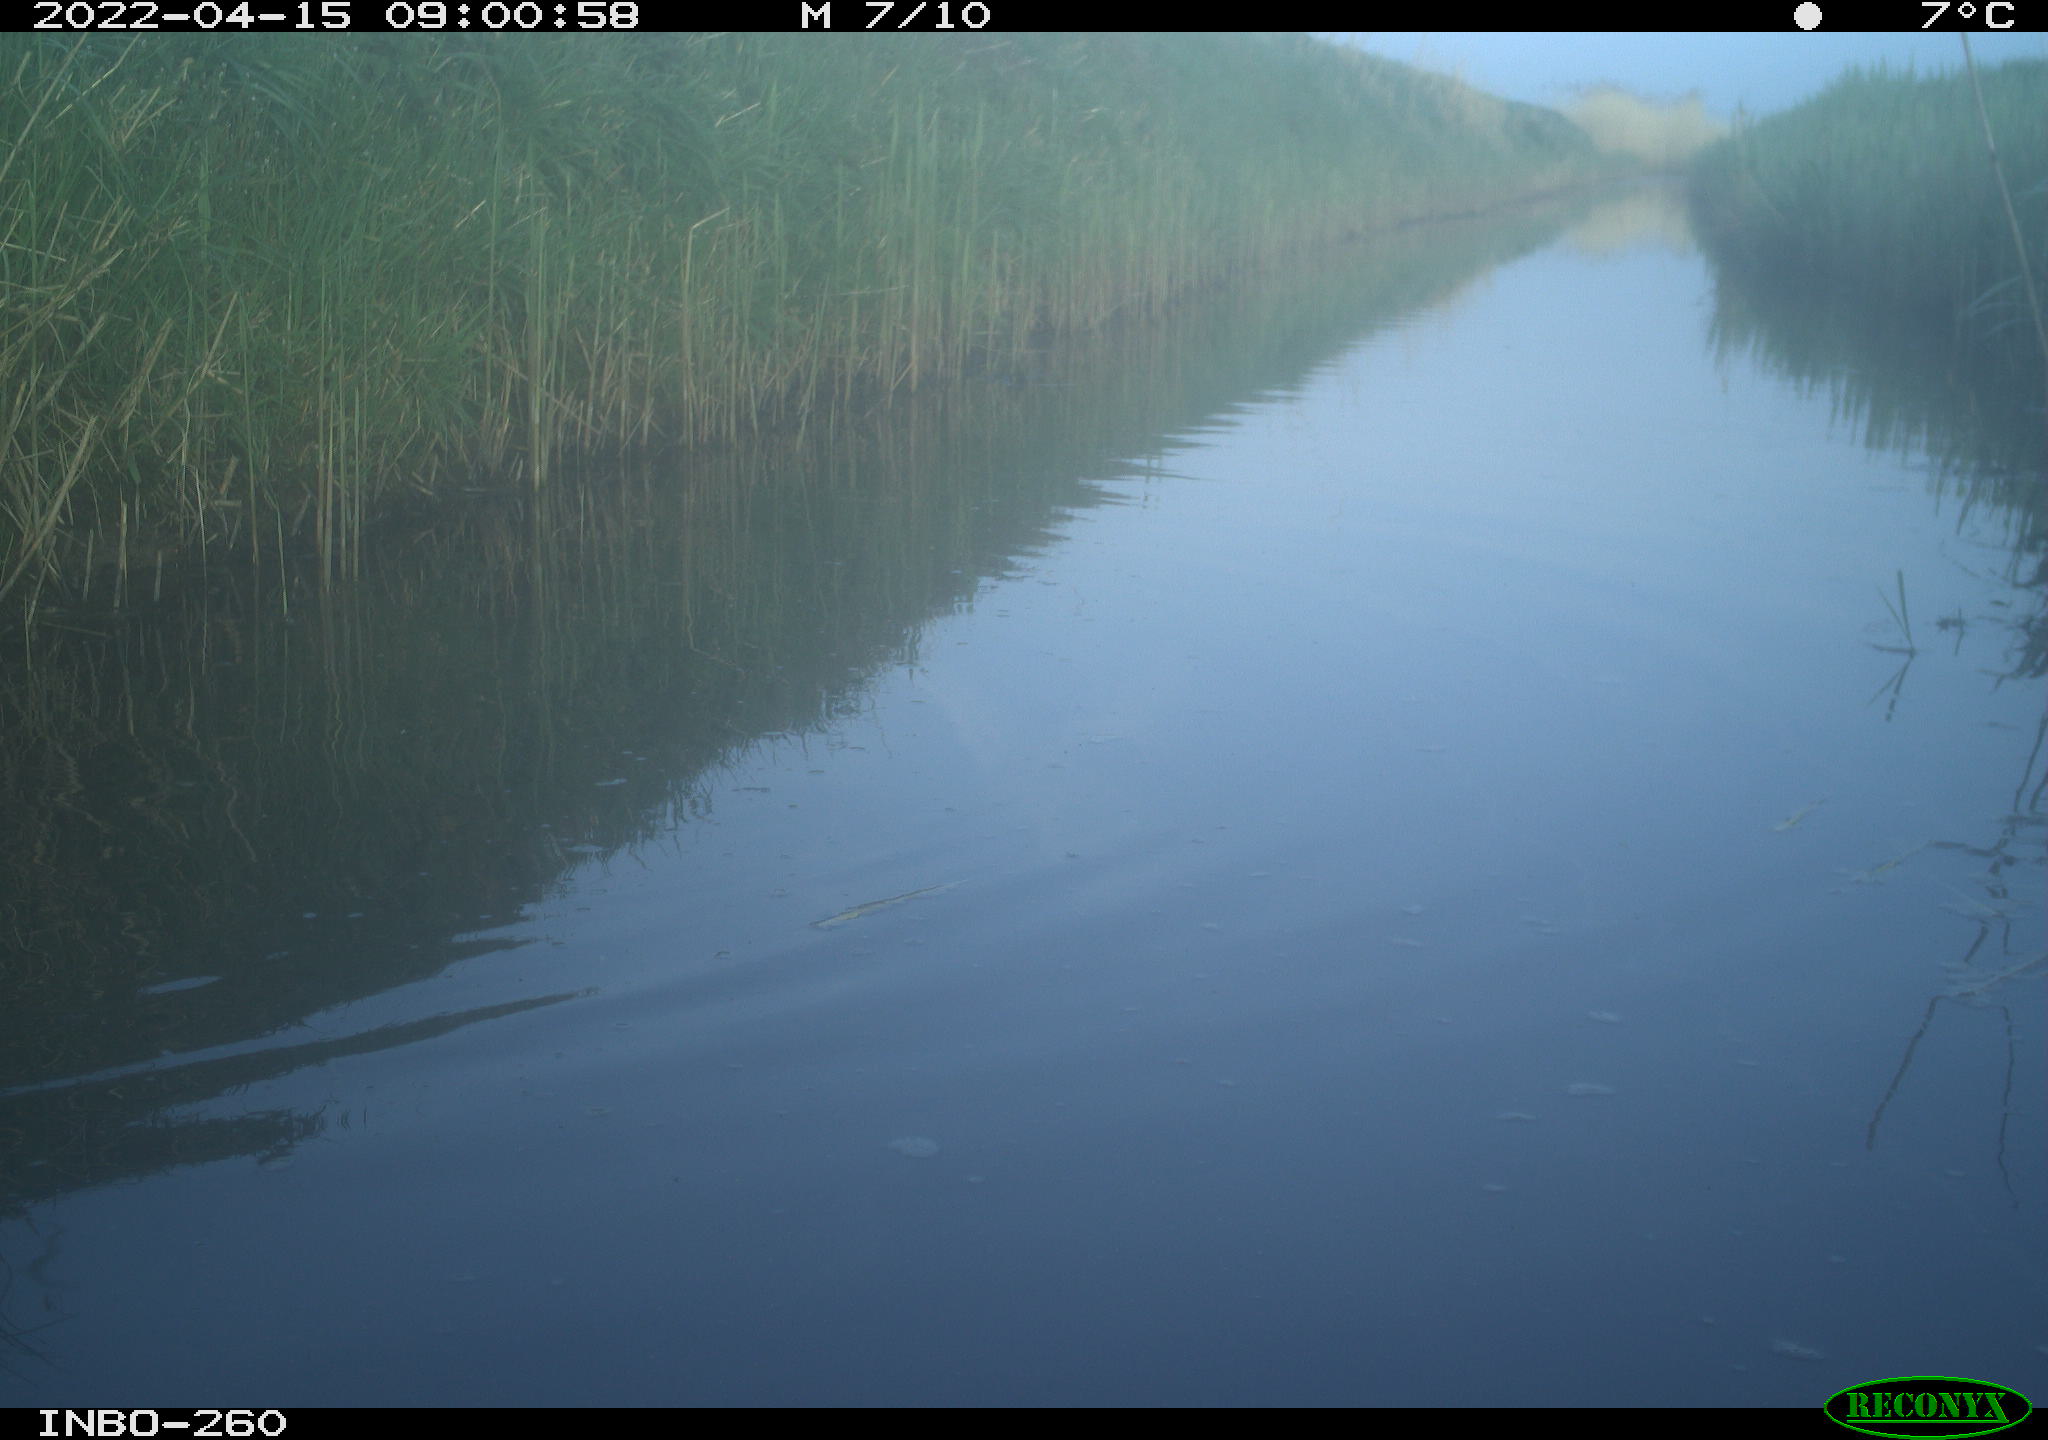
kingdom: Animalia
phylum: Chordata
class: Aves
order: Gruiformes
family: Rallidae
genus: Fulica
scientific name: Fulica atra
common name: Eurasian coot
